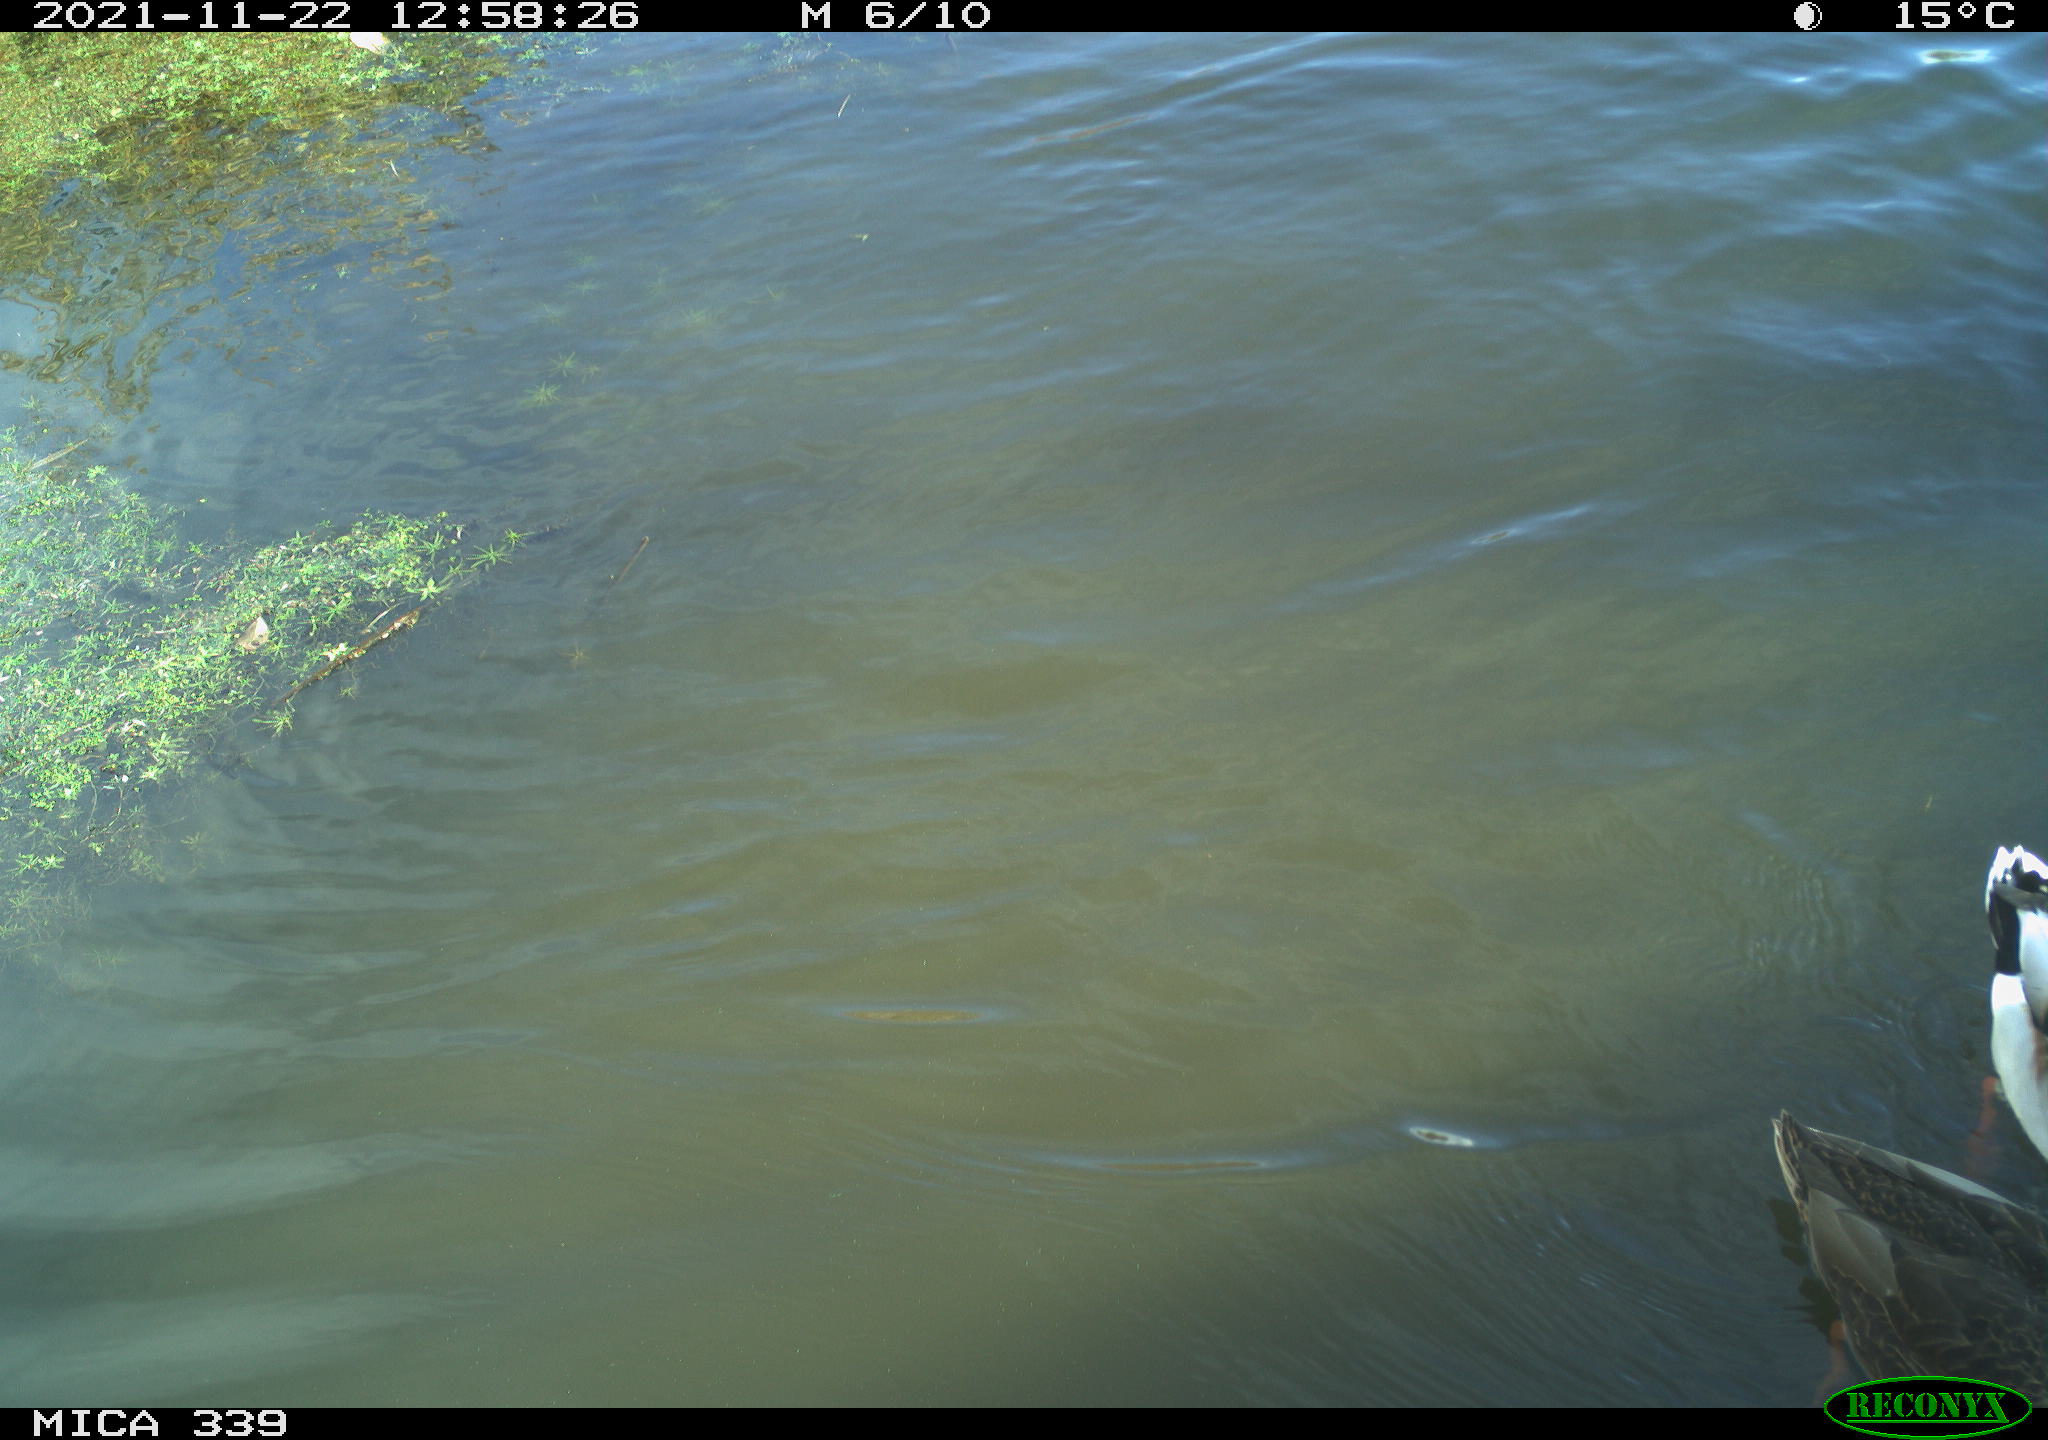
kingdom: Animalia
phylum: Chordata
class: Aves
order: Anseriformes
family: Anatidae
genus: Anas
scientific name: Anas platyrhynchos
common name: Mallard
